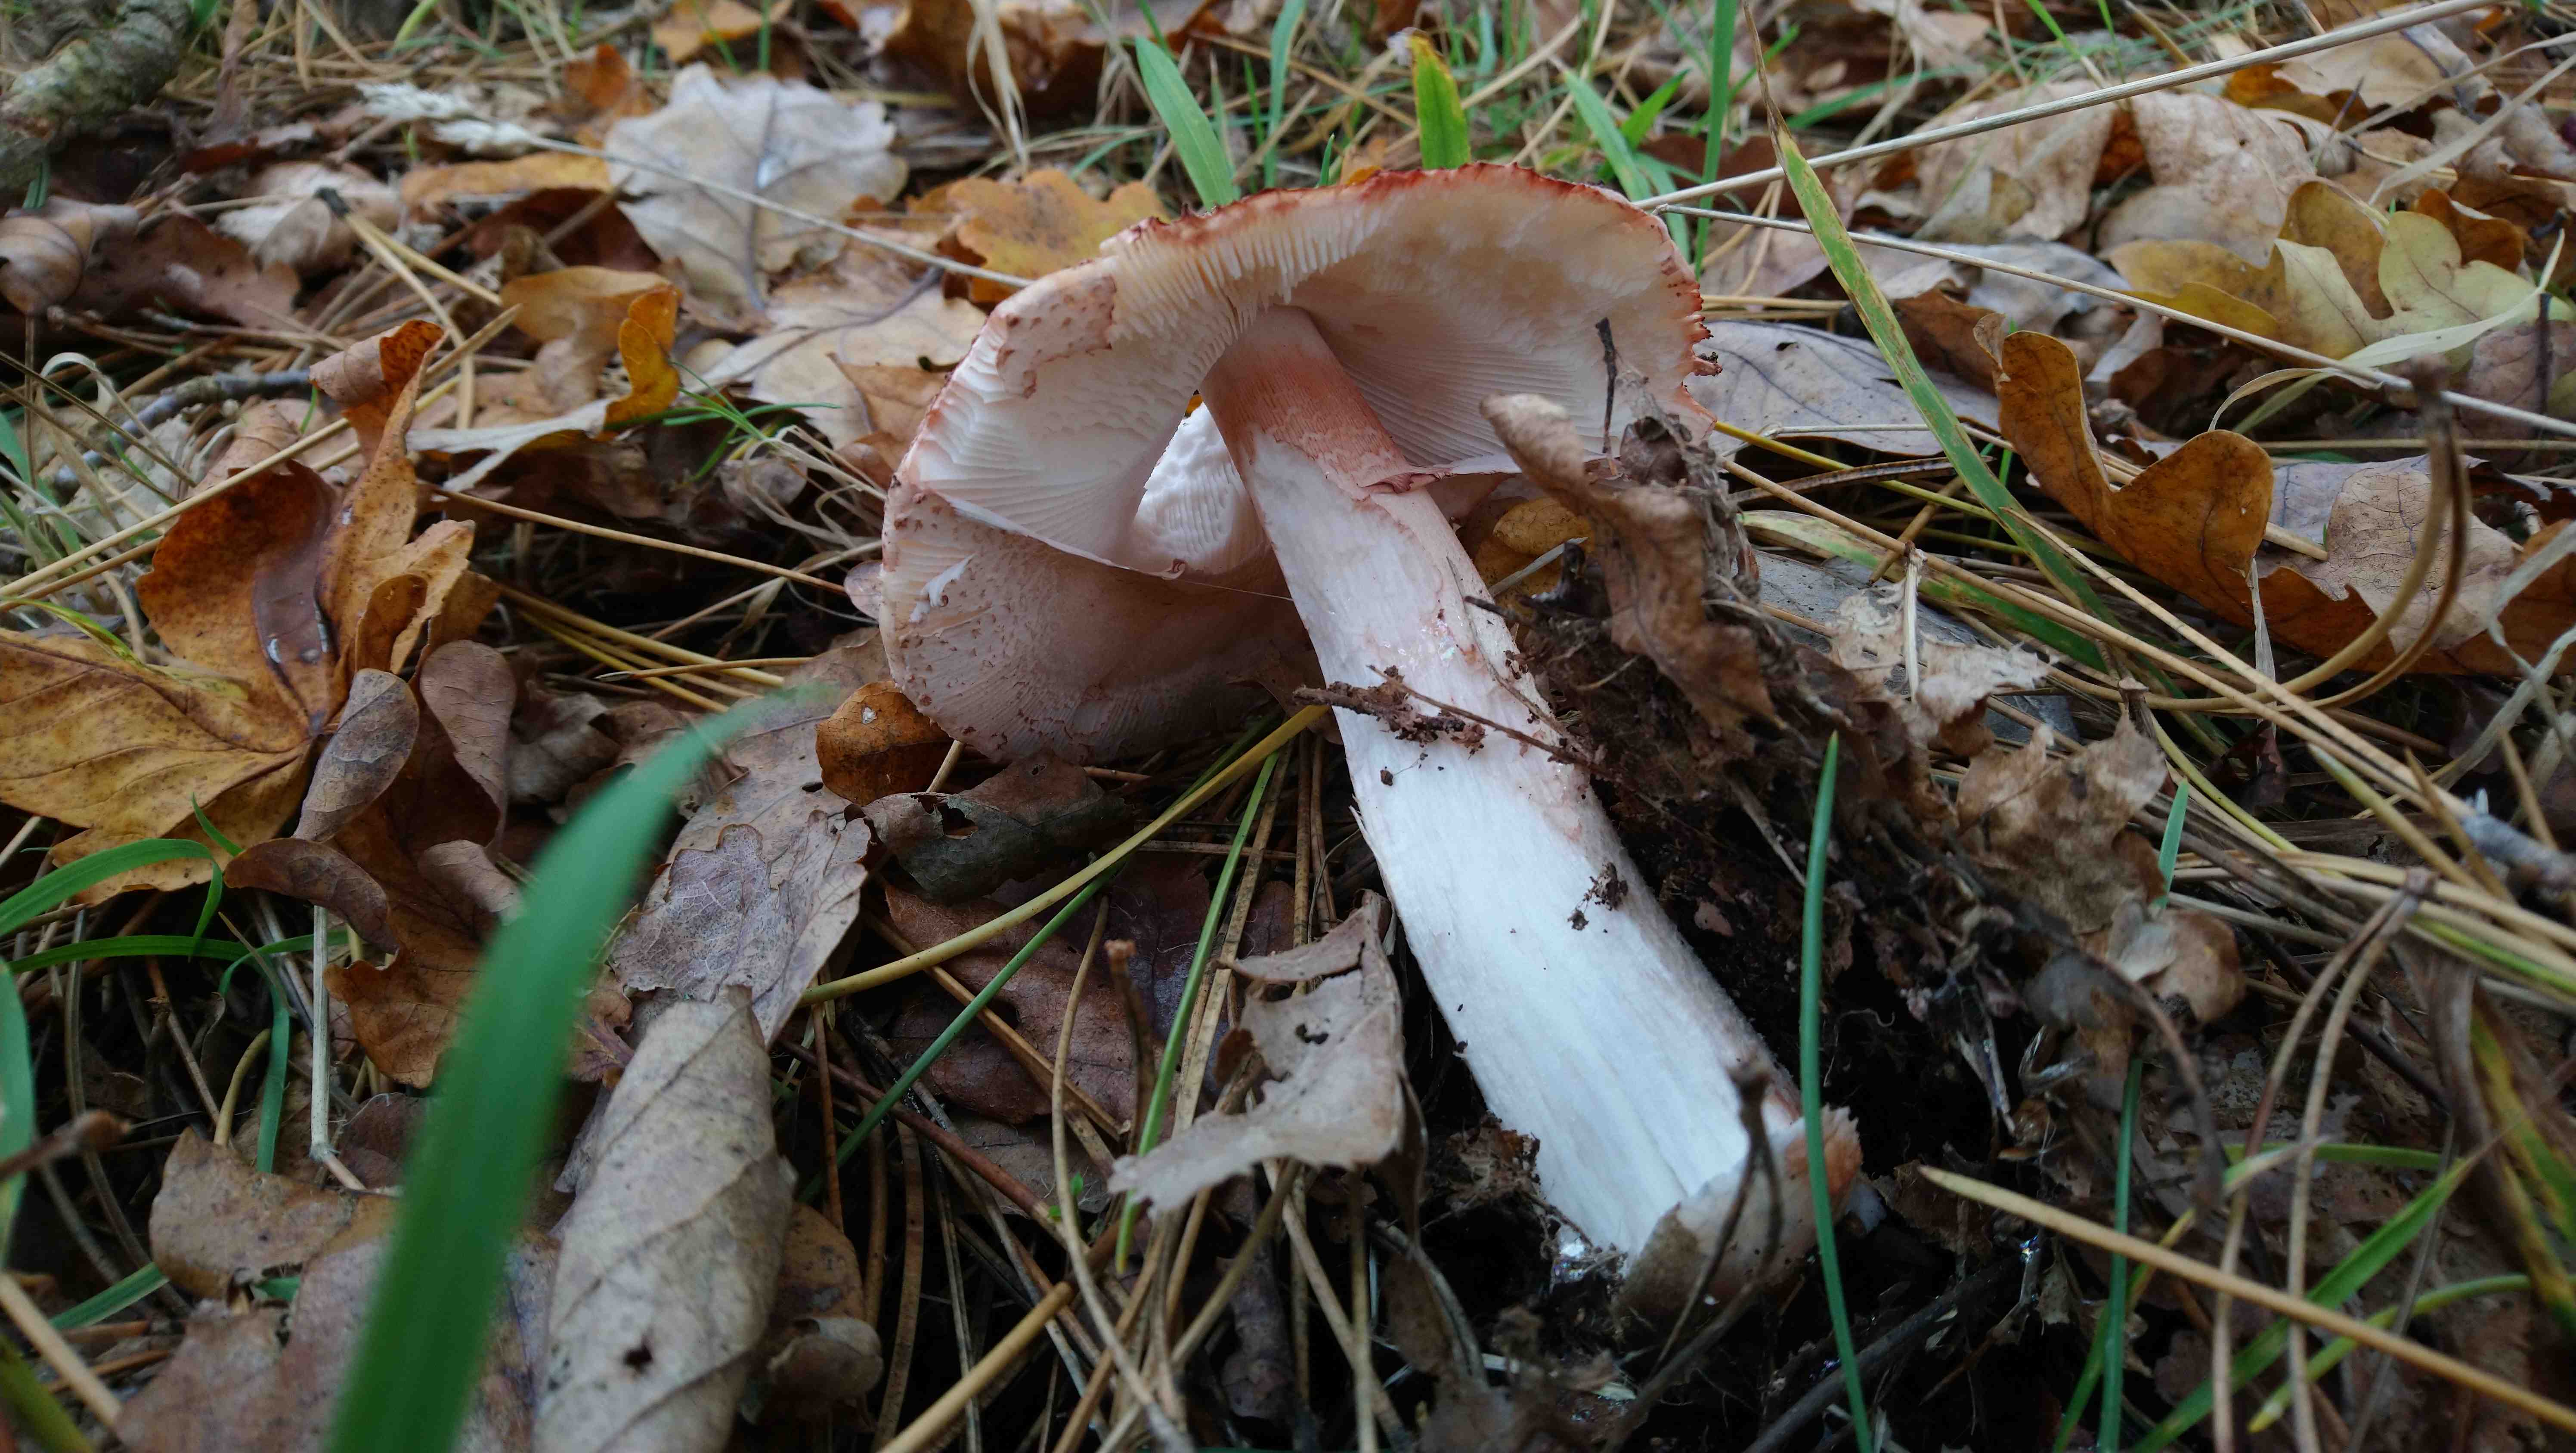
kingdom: Fungi
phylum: Basidiomycota
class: Agaricomycetes
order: Agaricales
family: Amanitaceae
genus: Amanita
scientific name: Amanita rubescens
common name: rødmende fluesvamp
